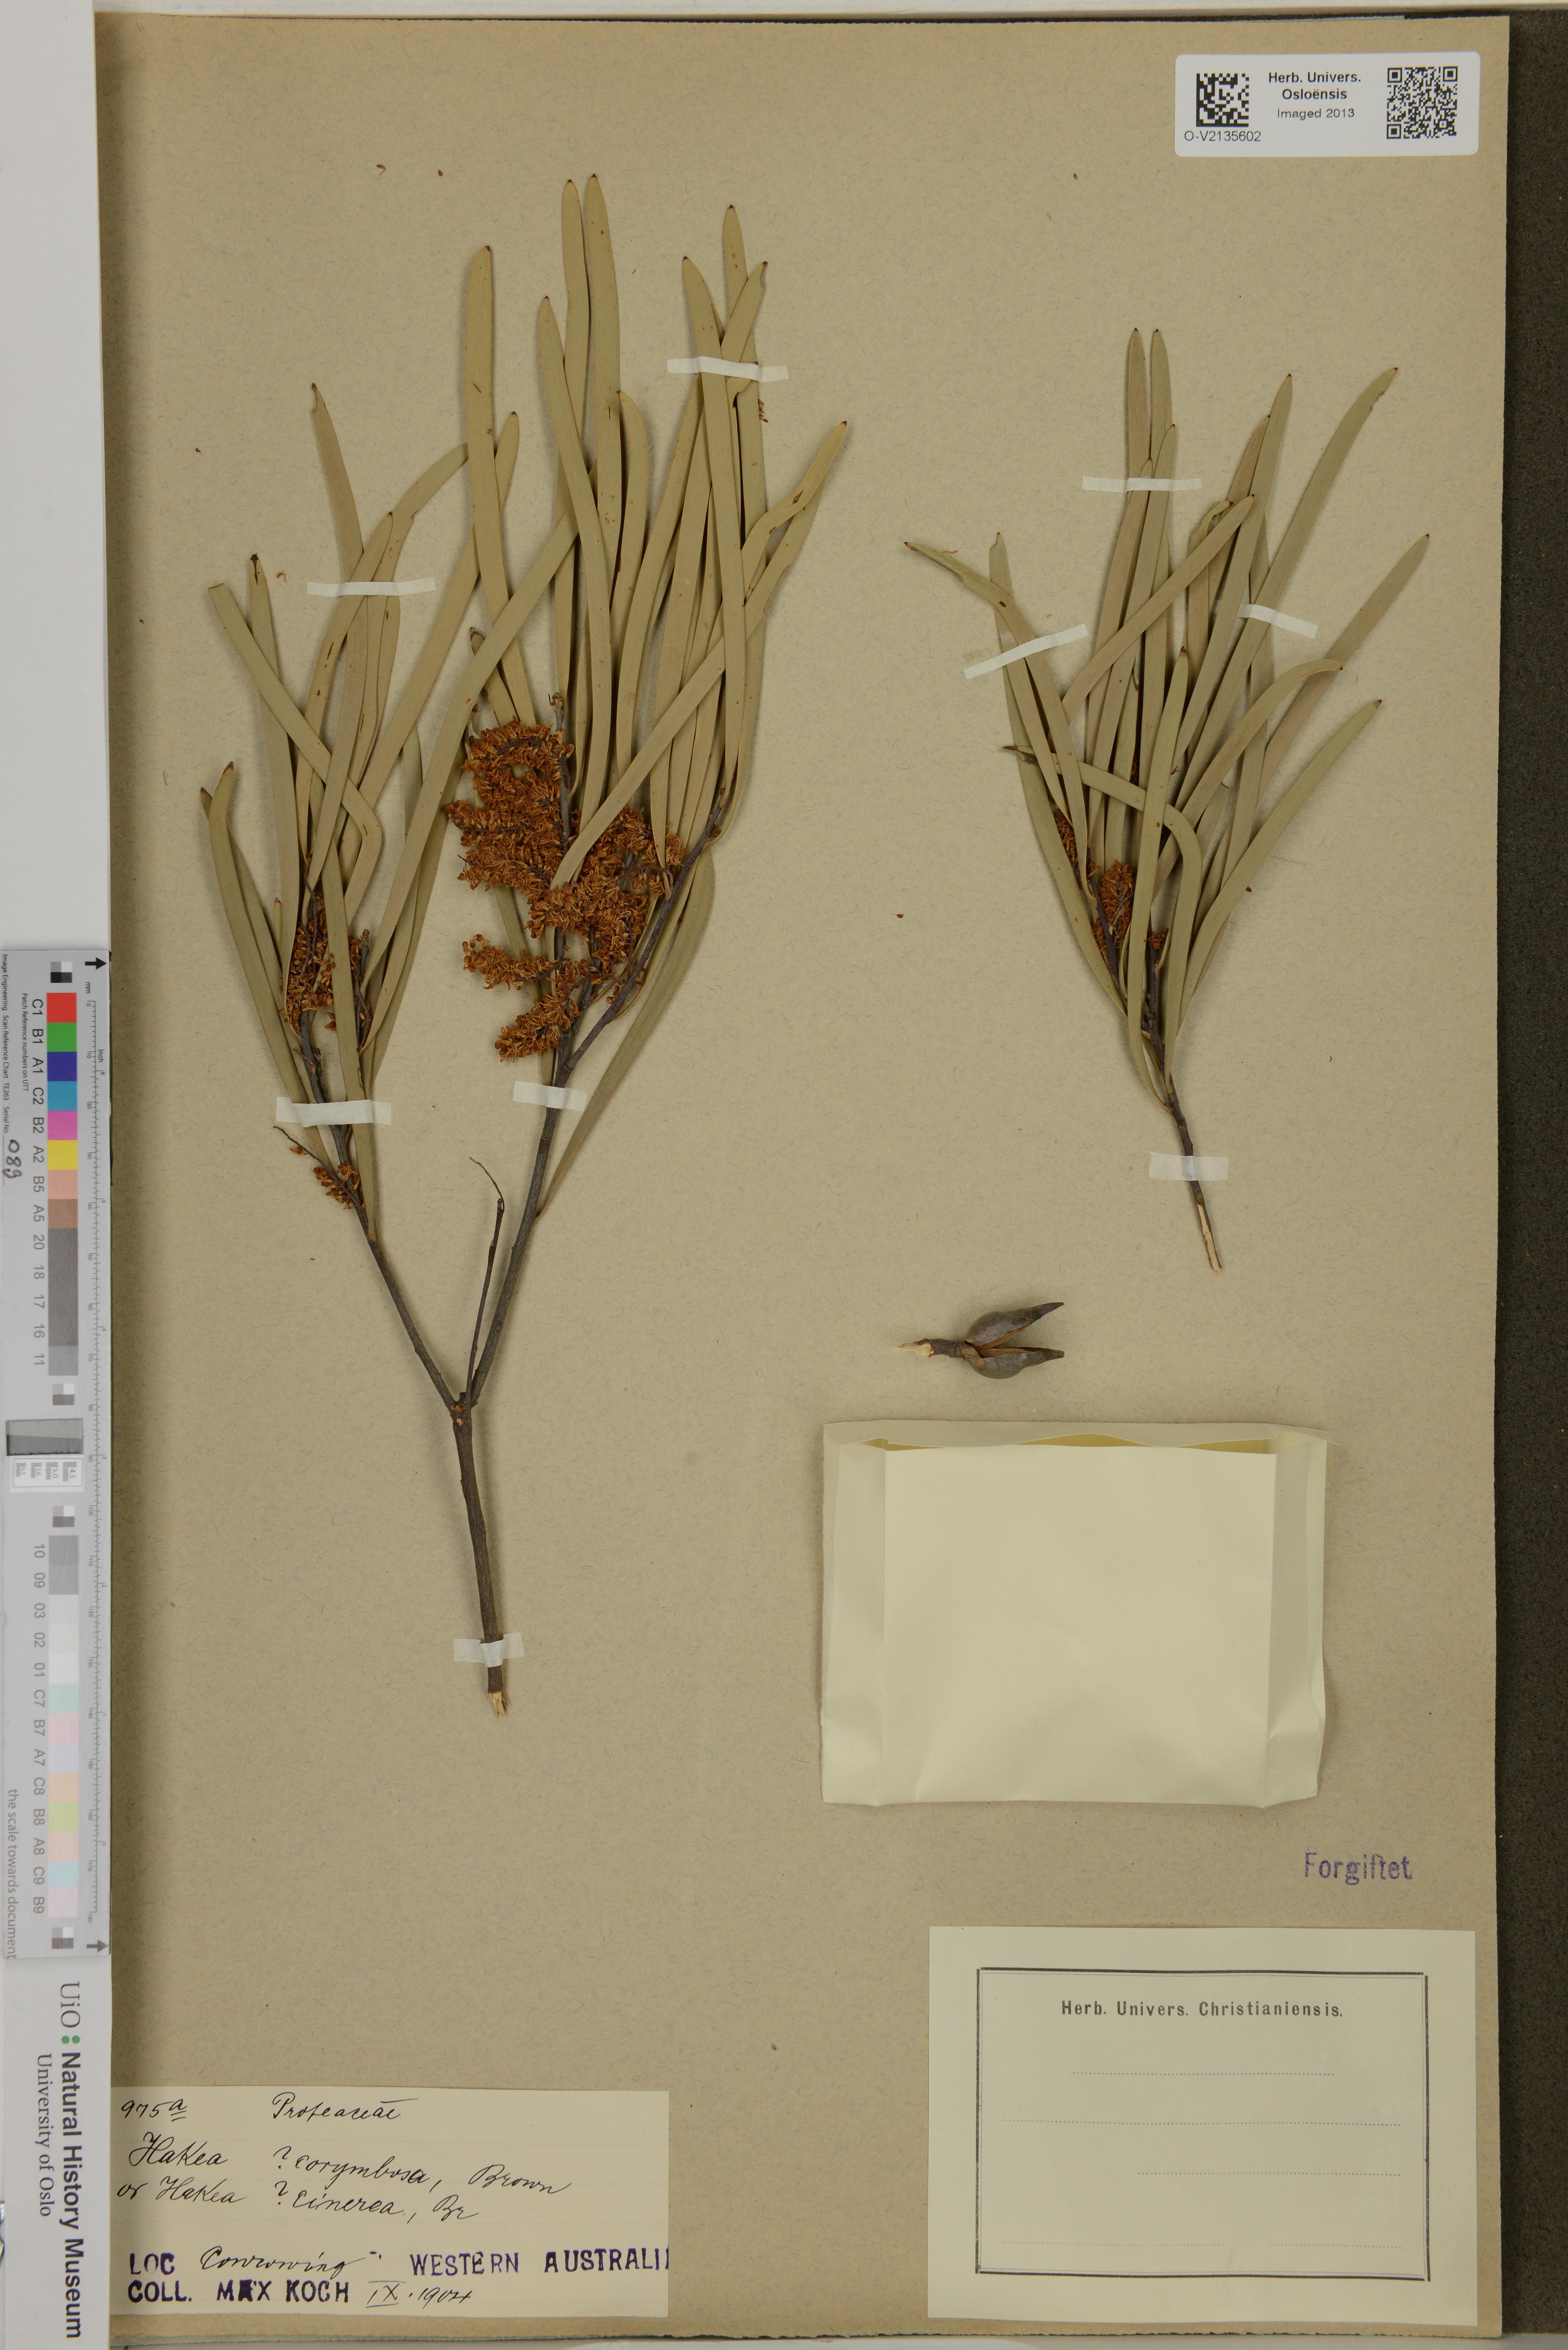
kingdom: Plantae
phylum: Tracheophyta
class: Magnoliopsida
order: Proteales
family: Proteaceae
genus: Hakea
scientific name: Hakea corymbosa
